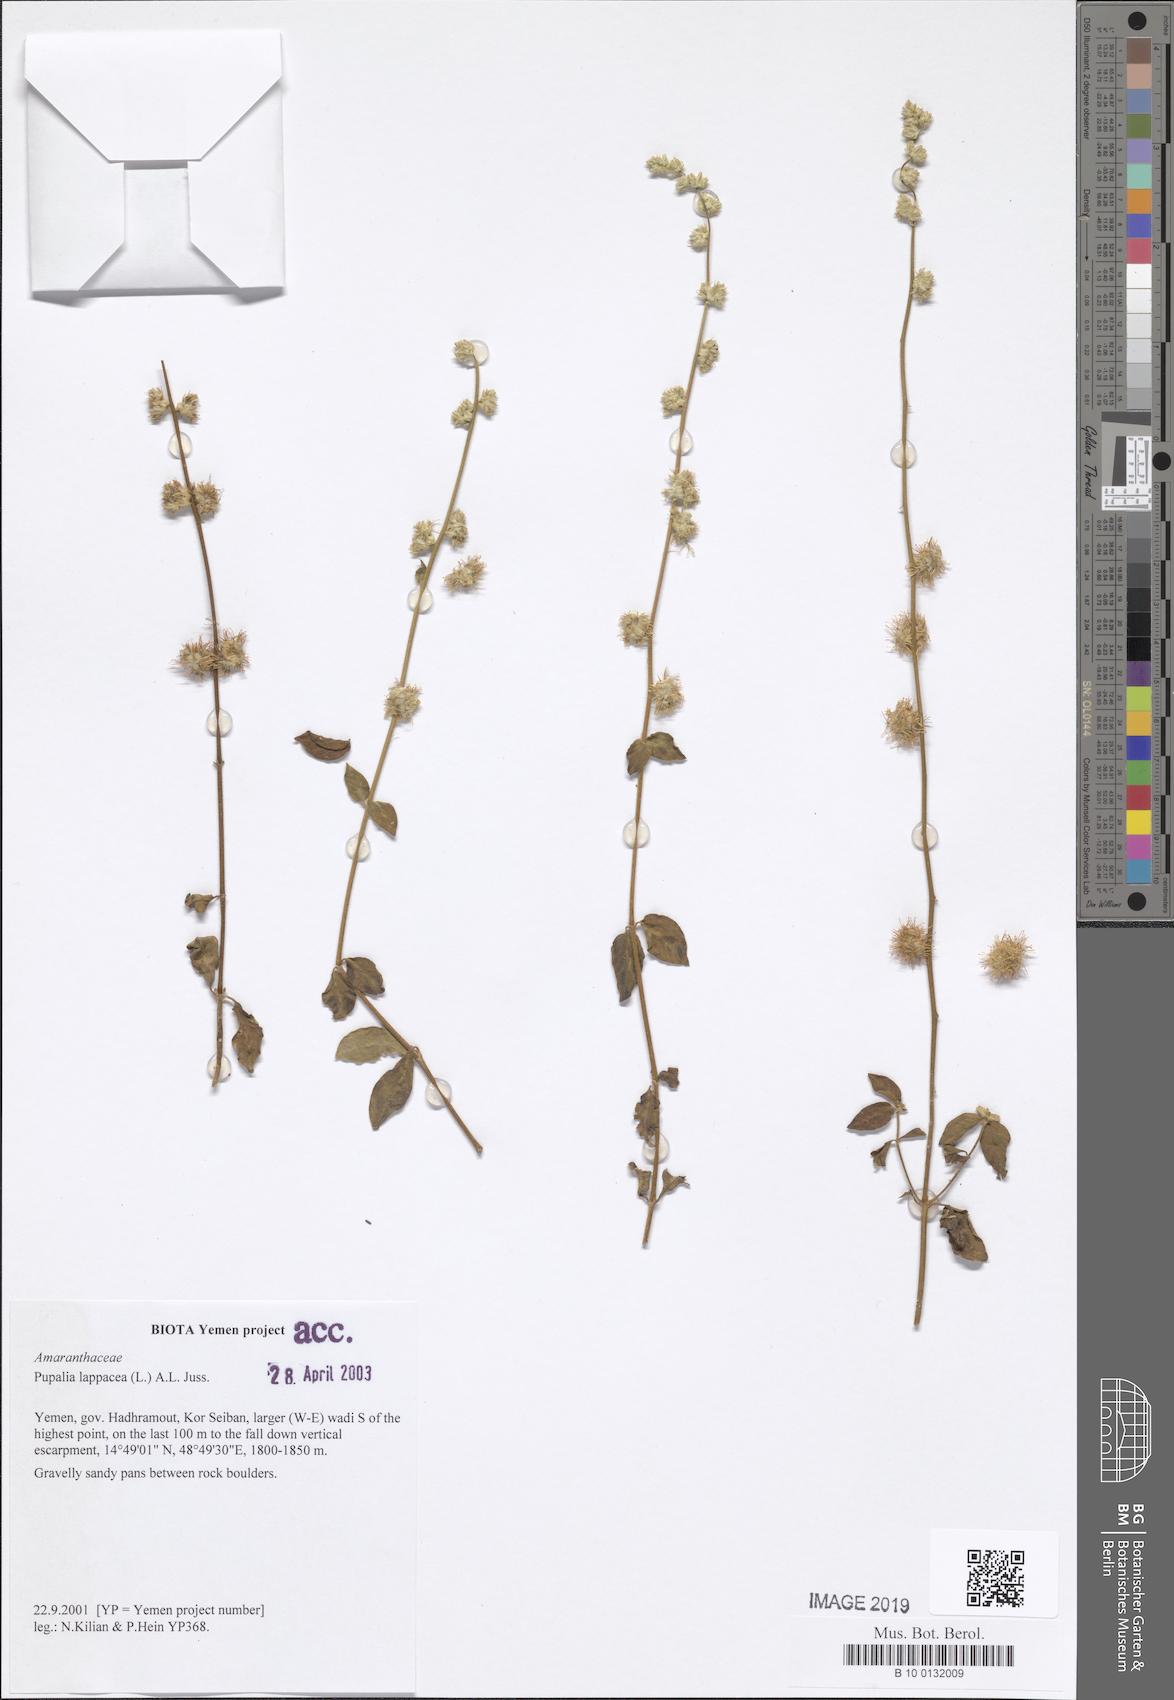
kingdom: Plantae
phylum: Tracheophyta
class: Magnoliopsida
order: Caryophyllales
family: Amaranthaceae
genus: Pupalia
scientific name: Pupalia lappacea
